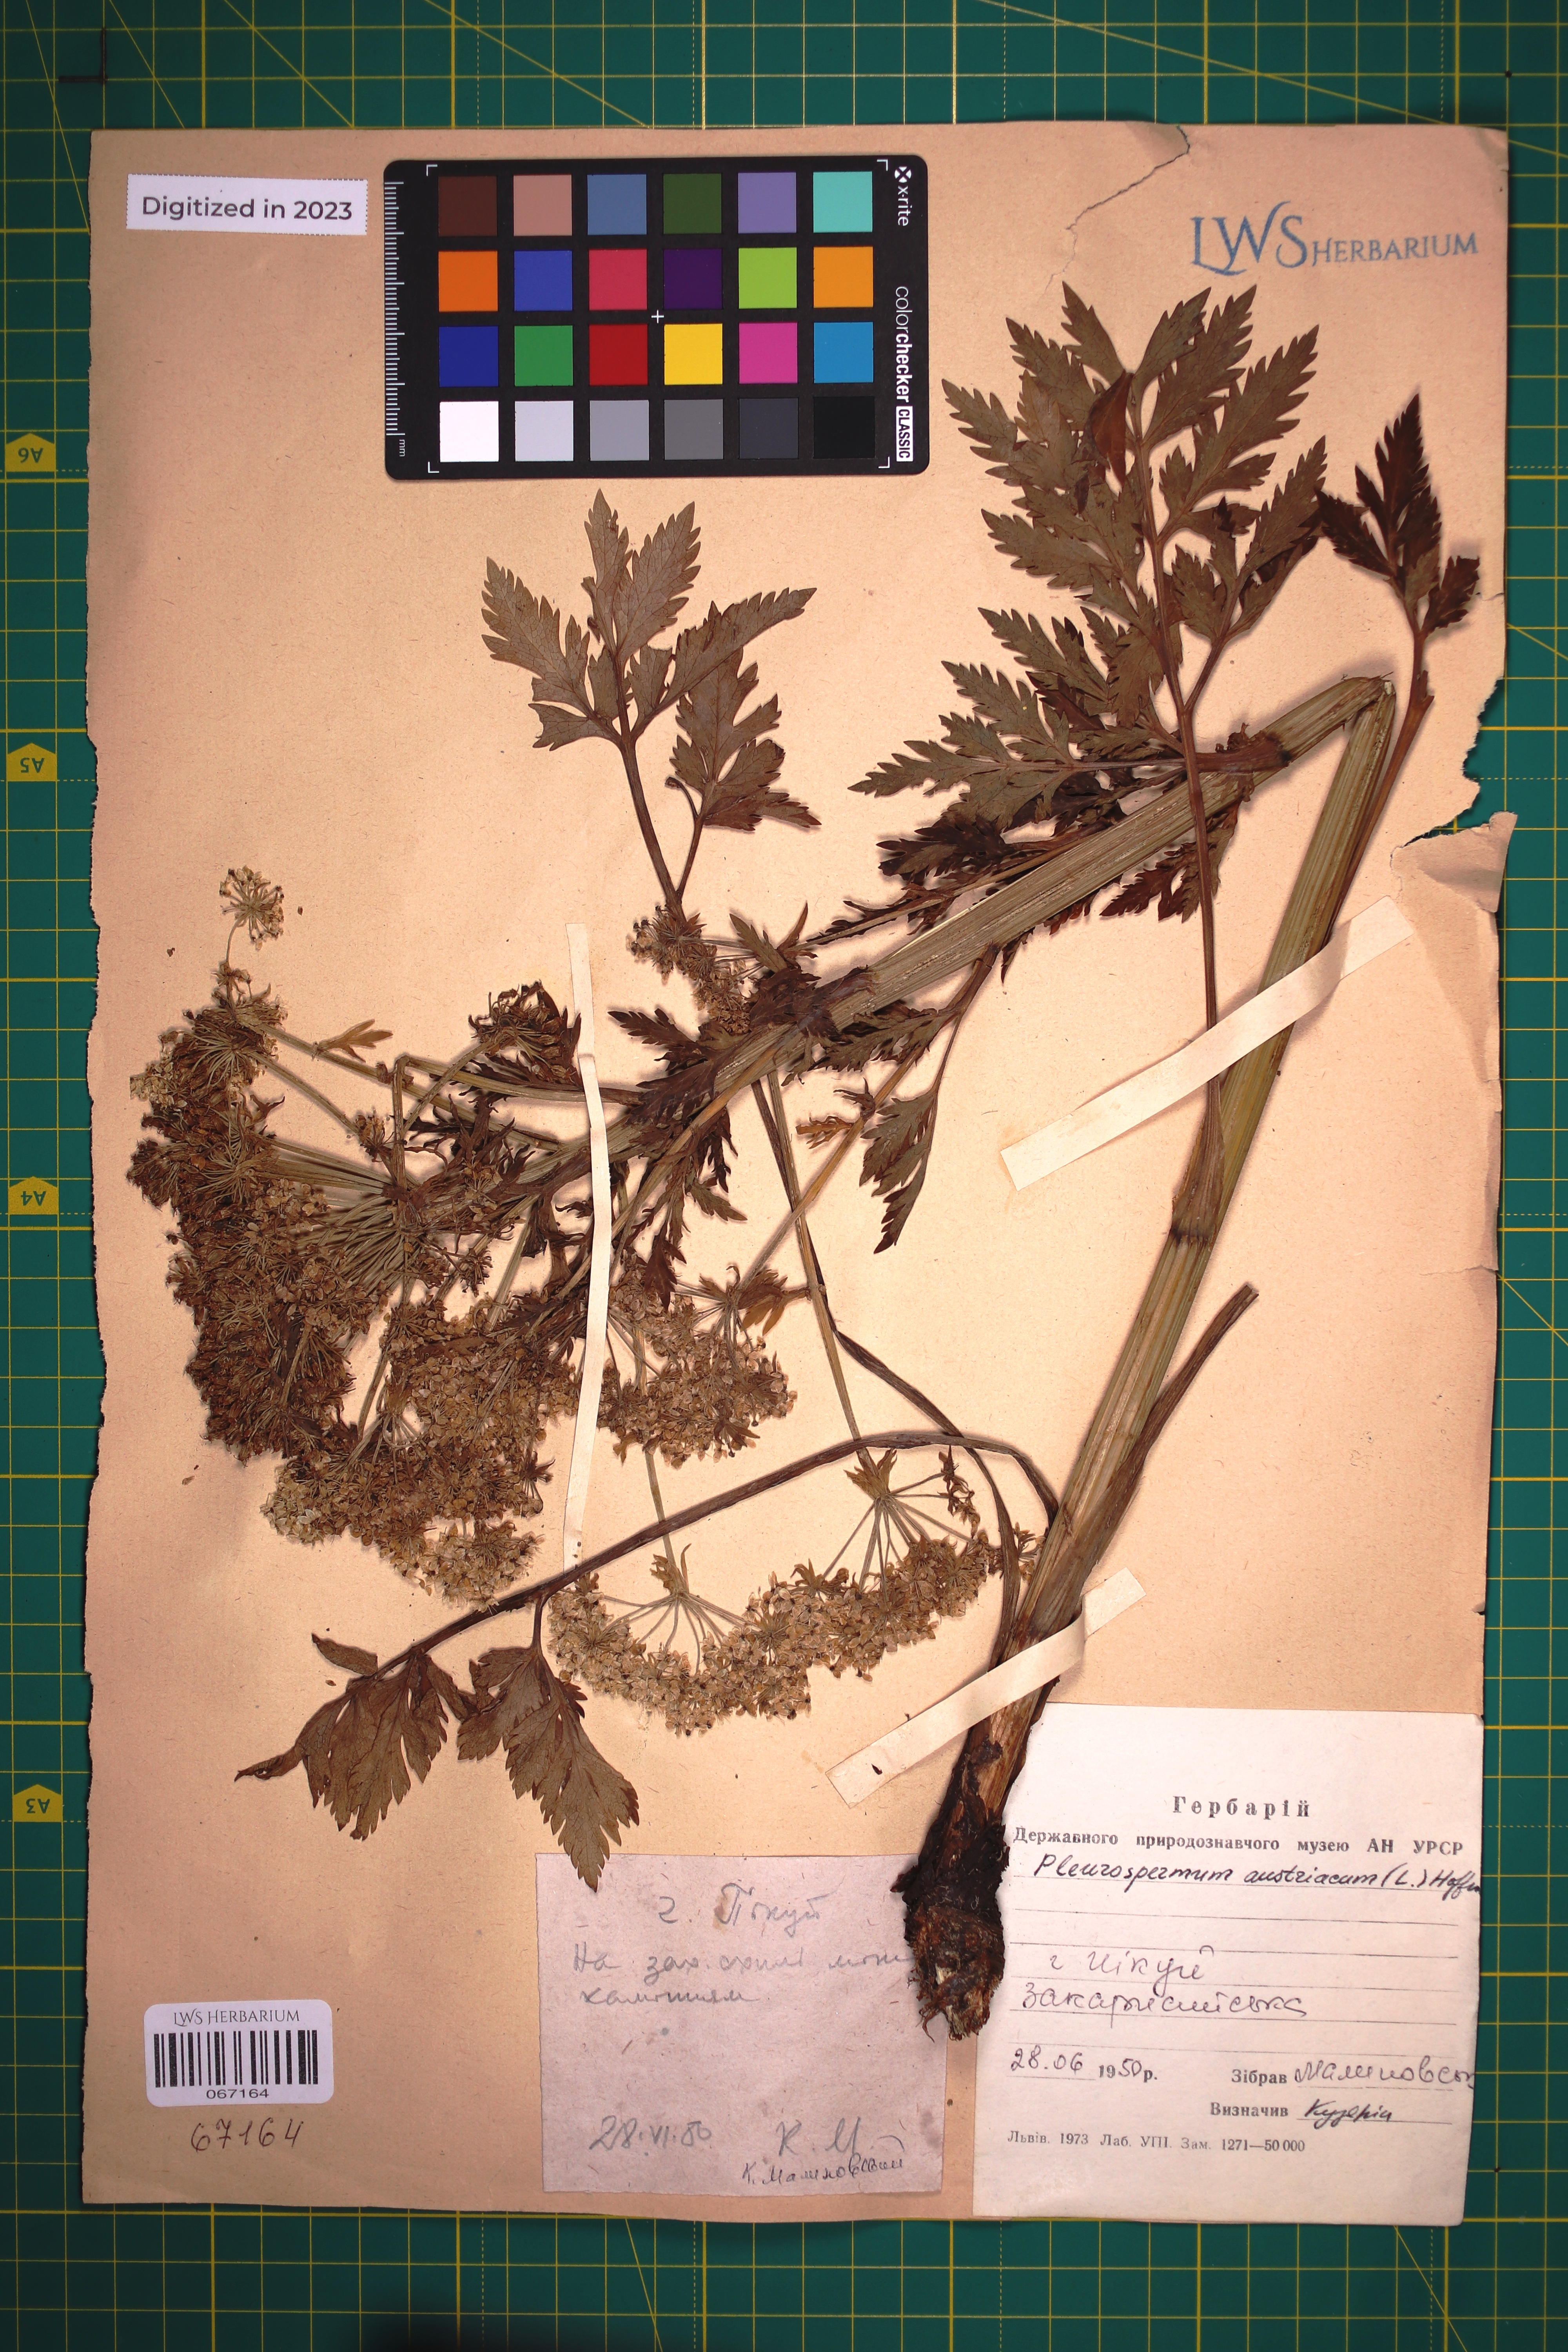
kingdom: Plantae
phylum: Tracheophyta
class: Magnoliopsida
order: Apiales
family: Apiaceae
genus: Pleurospermum
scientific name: Pleurospermum austriacum
